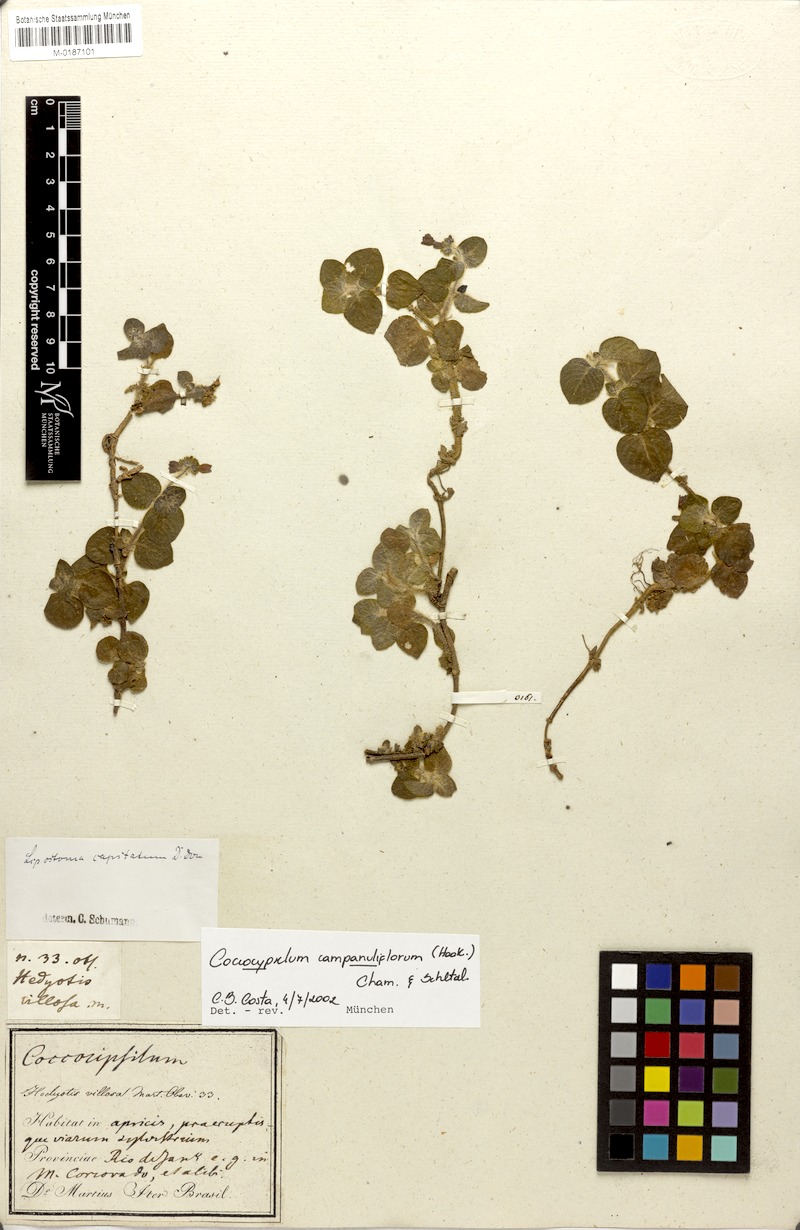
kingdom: Plantae
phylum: Tracheophyta
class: Magnoliopsida
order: Gentianales
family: Rubiaceae
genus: Coccocypselum
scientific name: Coccocypselum capitatum
